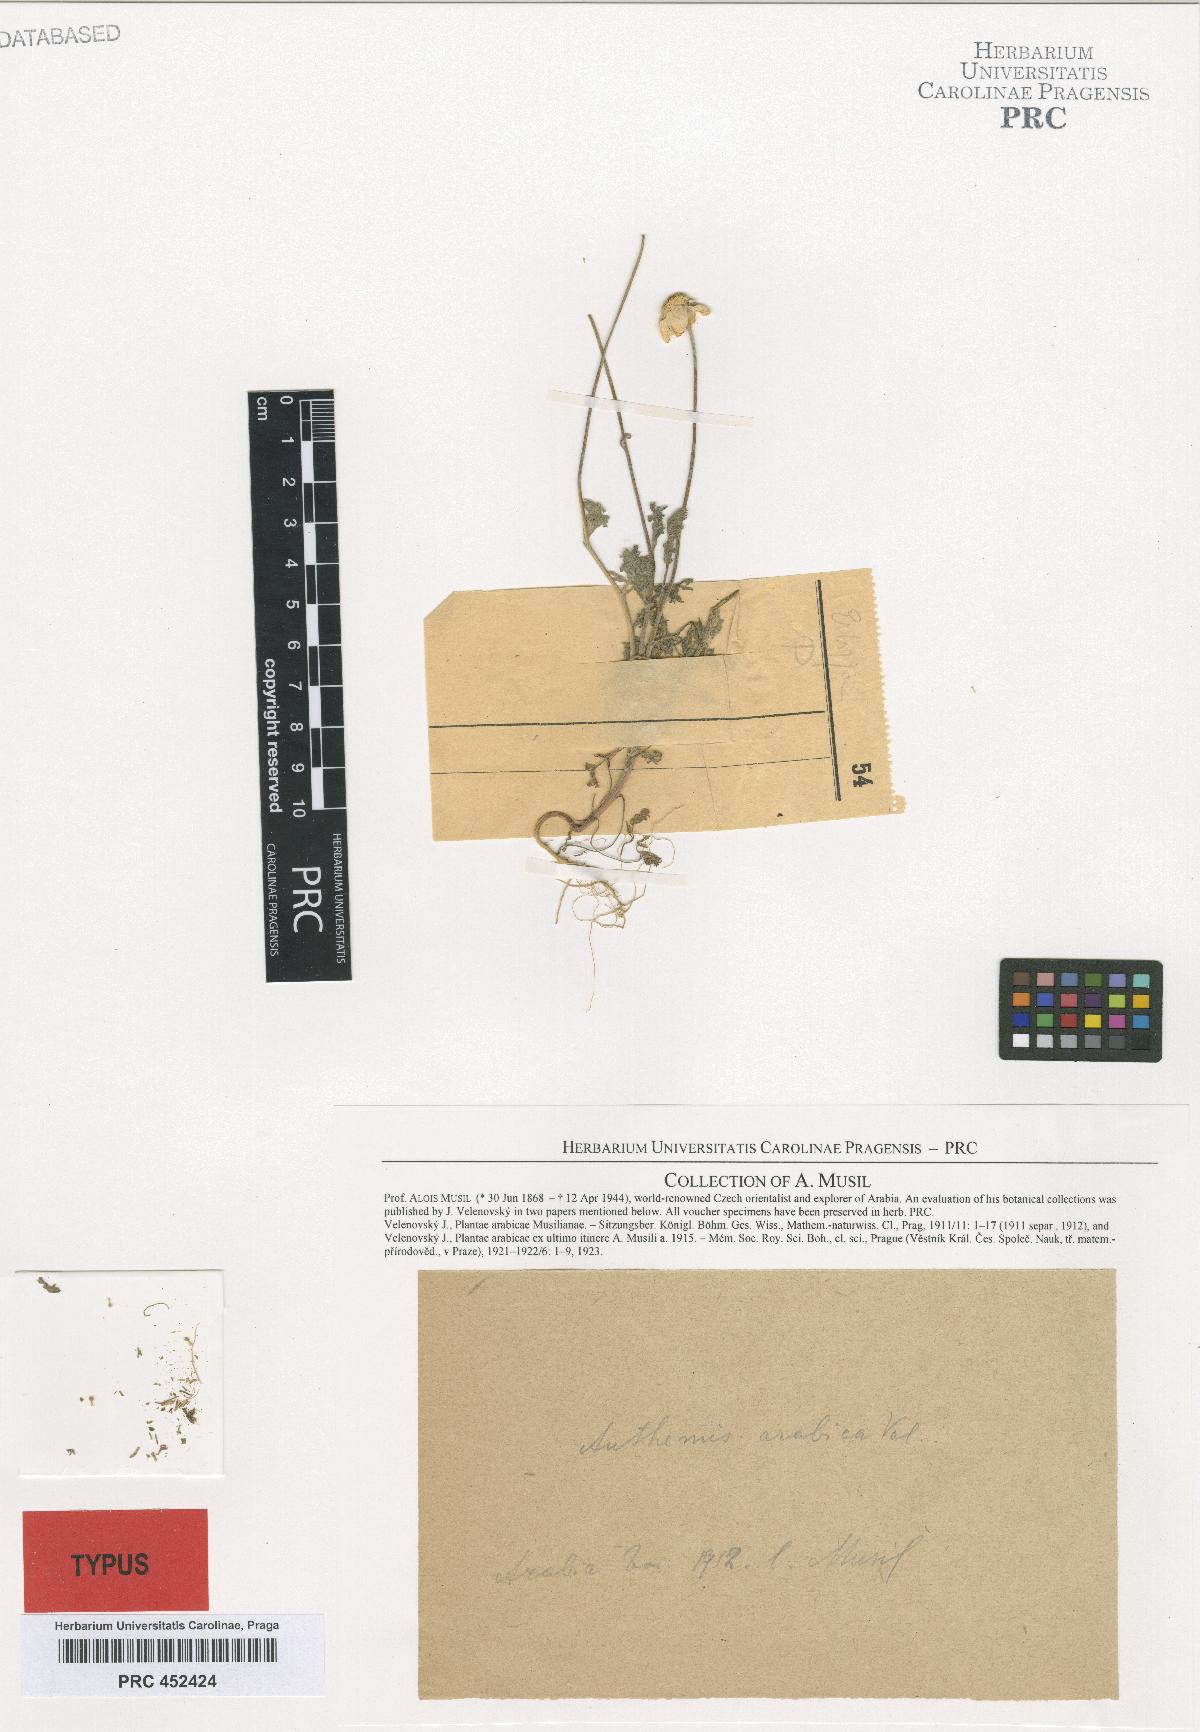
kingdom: Plantae
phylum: Tracheophyta
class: Magnoliopsida
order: Asterales
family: Asteraceae
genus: Flaveria
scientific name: Flaveria bidentis
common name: Coastal plain yellowtops
